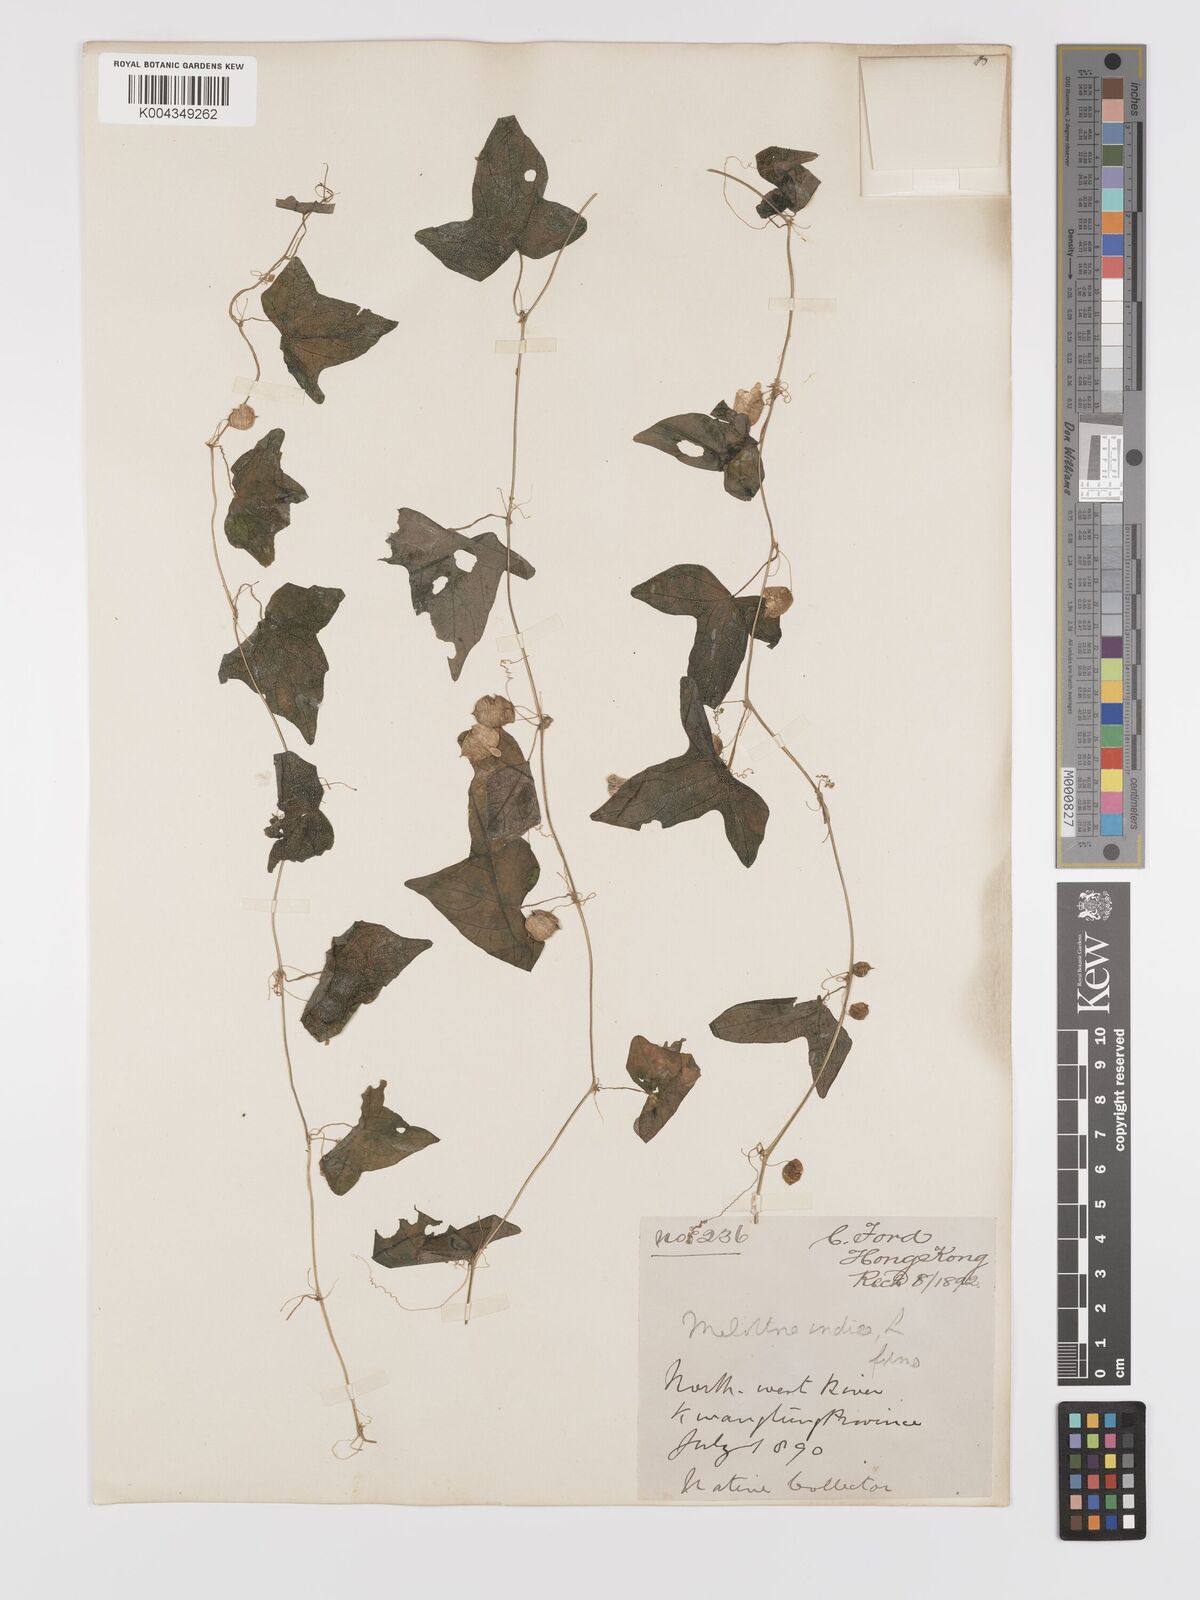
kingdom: Plantae
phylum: Tracheophyta
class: Magnoliopsida
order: Cucurbitales
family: Cucurbitaceae
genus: Zehneria
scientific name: Zehneria japonica
